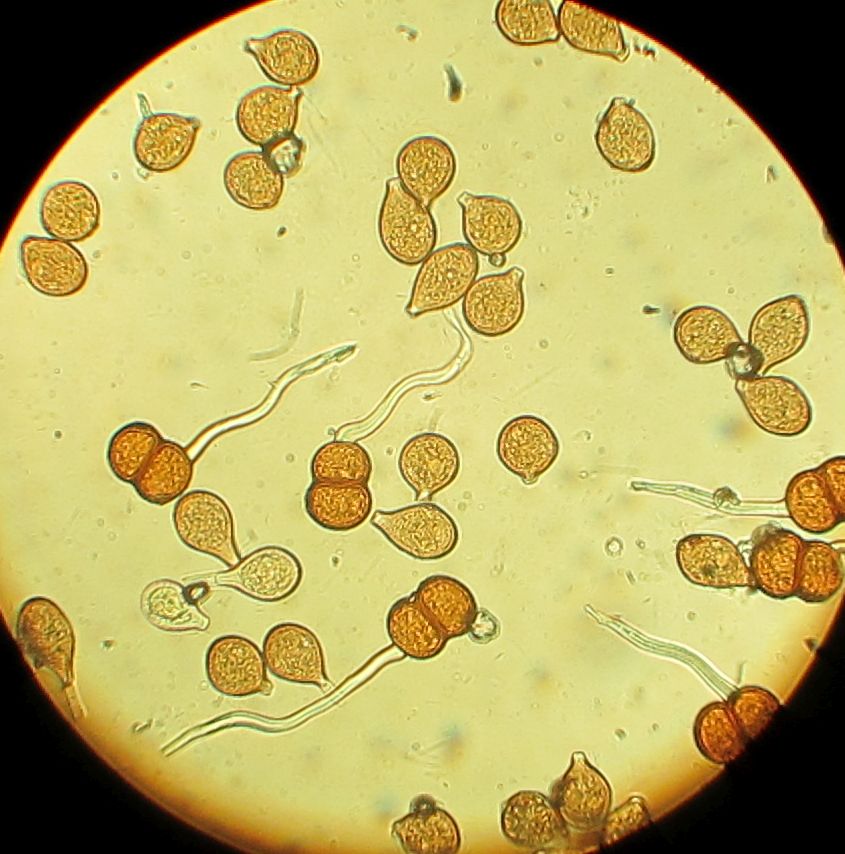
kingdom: Fungi
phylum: Basidiomycota
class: Pucciniomycetes
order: Pucciniales
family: Pucciniaceae
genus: Cumminsiella
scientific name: Cumminsiella mirabilissima
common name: mahonierust
